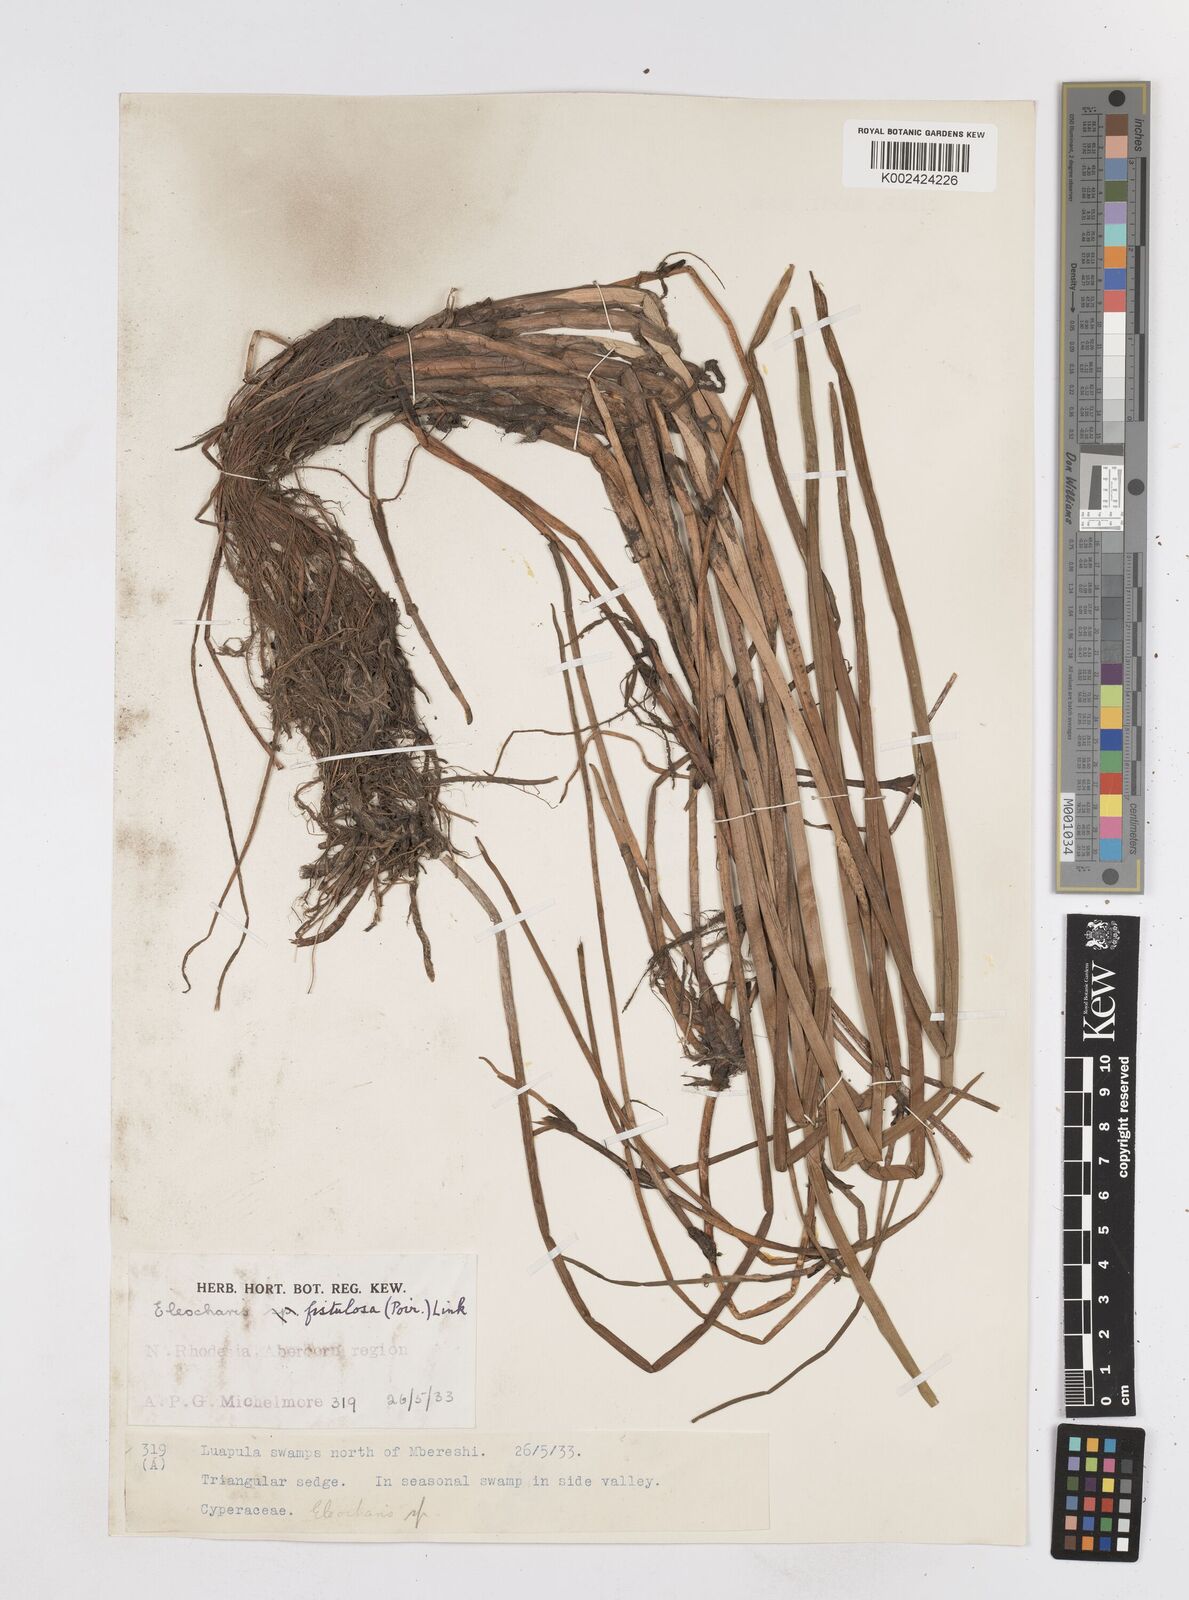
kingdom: Plantae
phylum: Tracheophyta
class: Liliopsida
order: Poales
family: Cyperaceae
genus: Eleocharis
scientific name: Eleocharis acutangula
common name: Acute spikerush
